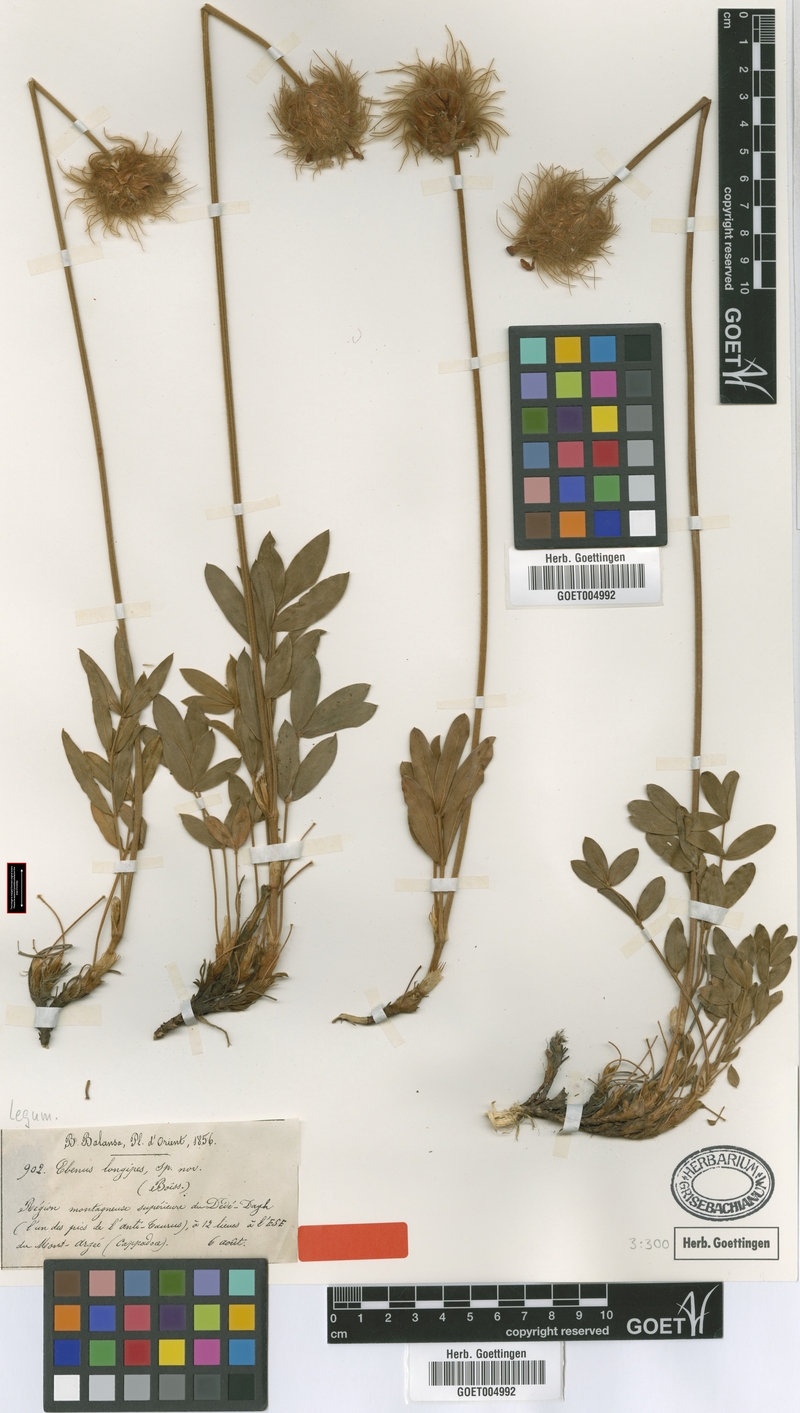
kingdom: Plantae
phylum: Tracheophyta
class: Magnoliopsida
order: Fabales
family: Fabaceae
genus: Ebenus
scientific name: Ebenus longipes
